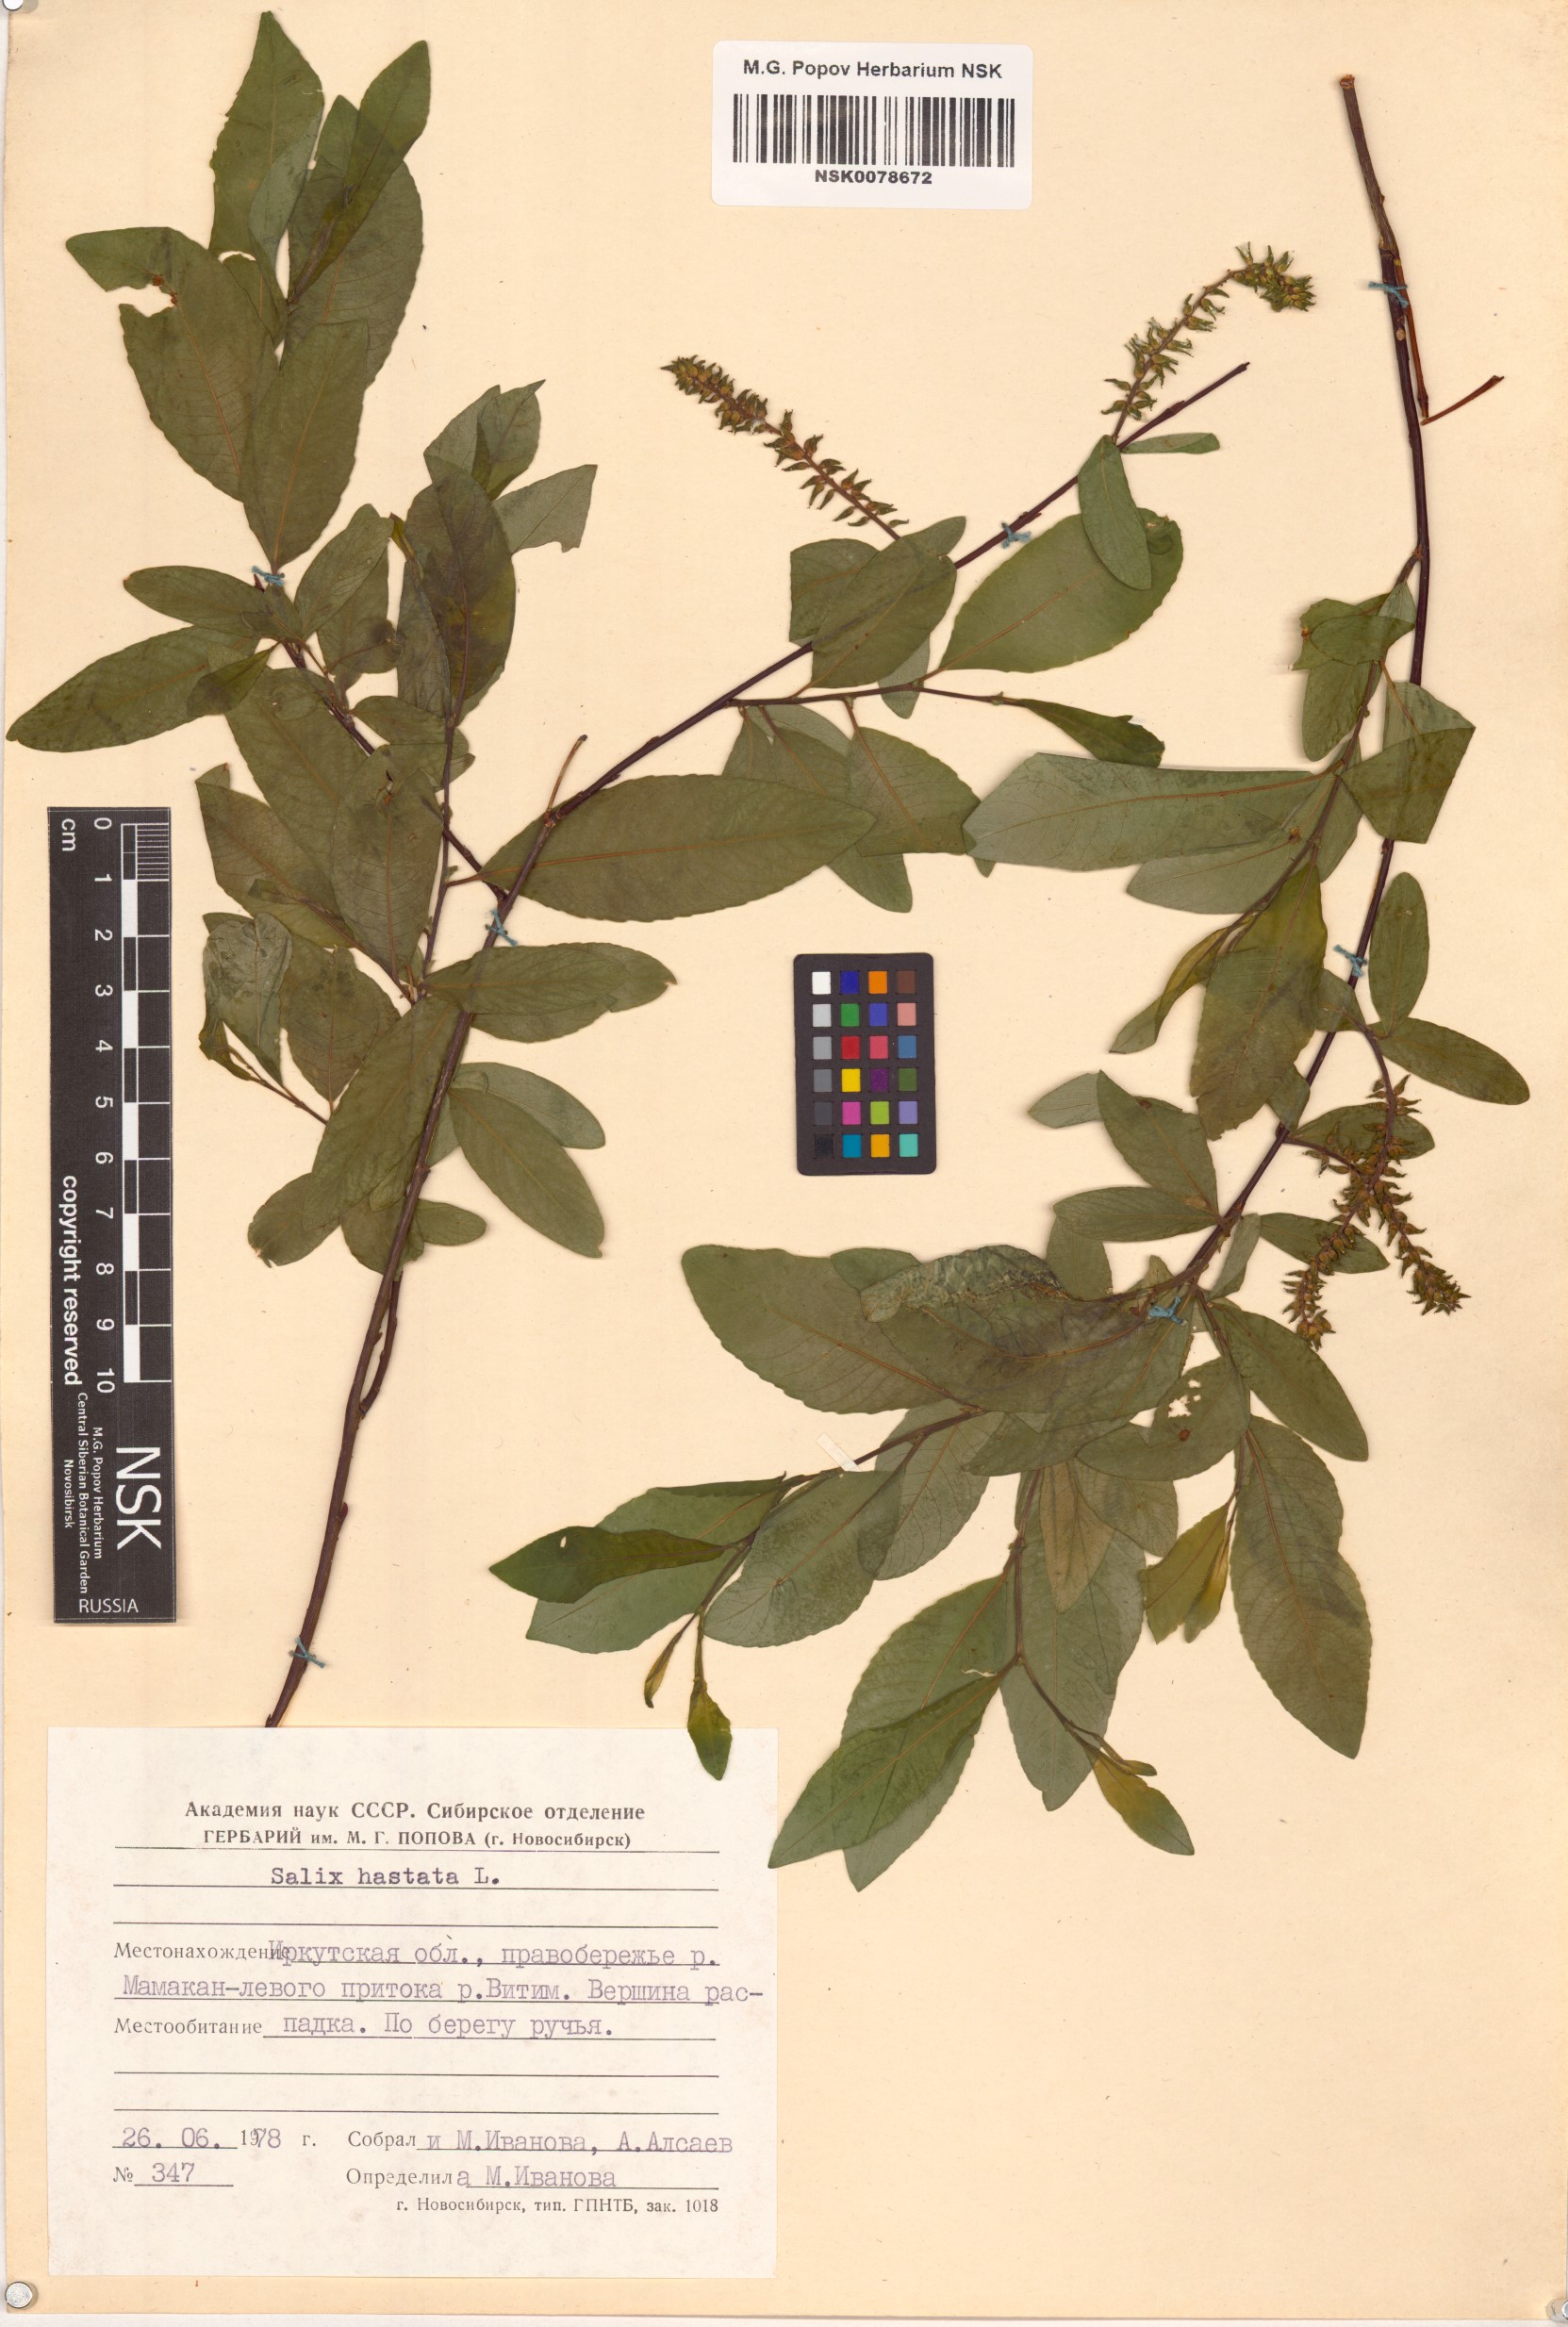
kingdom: Plantae
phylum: Tracheophyta
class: Magnoliopsida
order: Malpighiales
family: Salicaceae
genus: Salix
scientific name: Salix hastata
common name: Halberd willow
